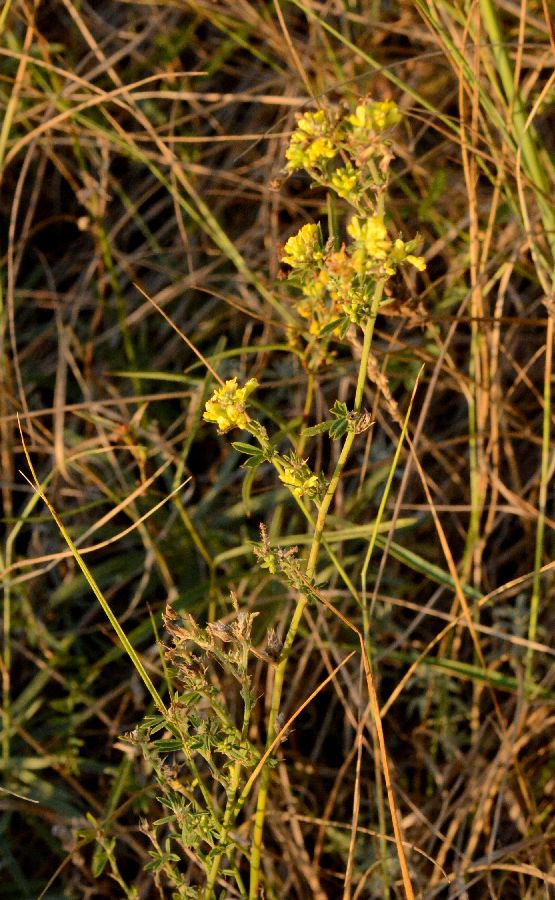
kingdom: Plantae
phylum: Tracheophyta
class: Magnoliopsida
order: Fabales
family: Fabaceae
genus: Medicago
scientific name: Medicago falcata
